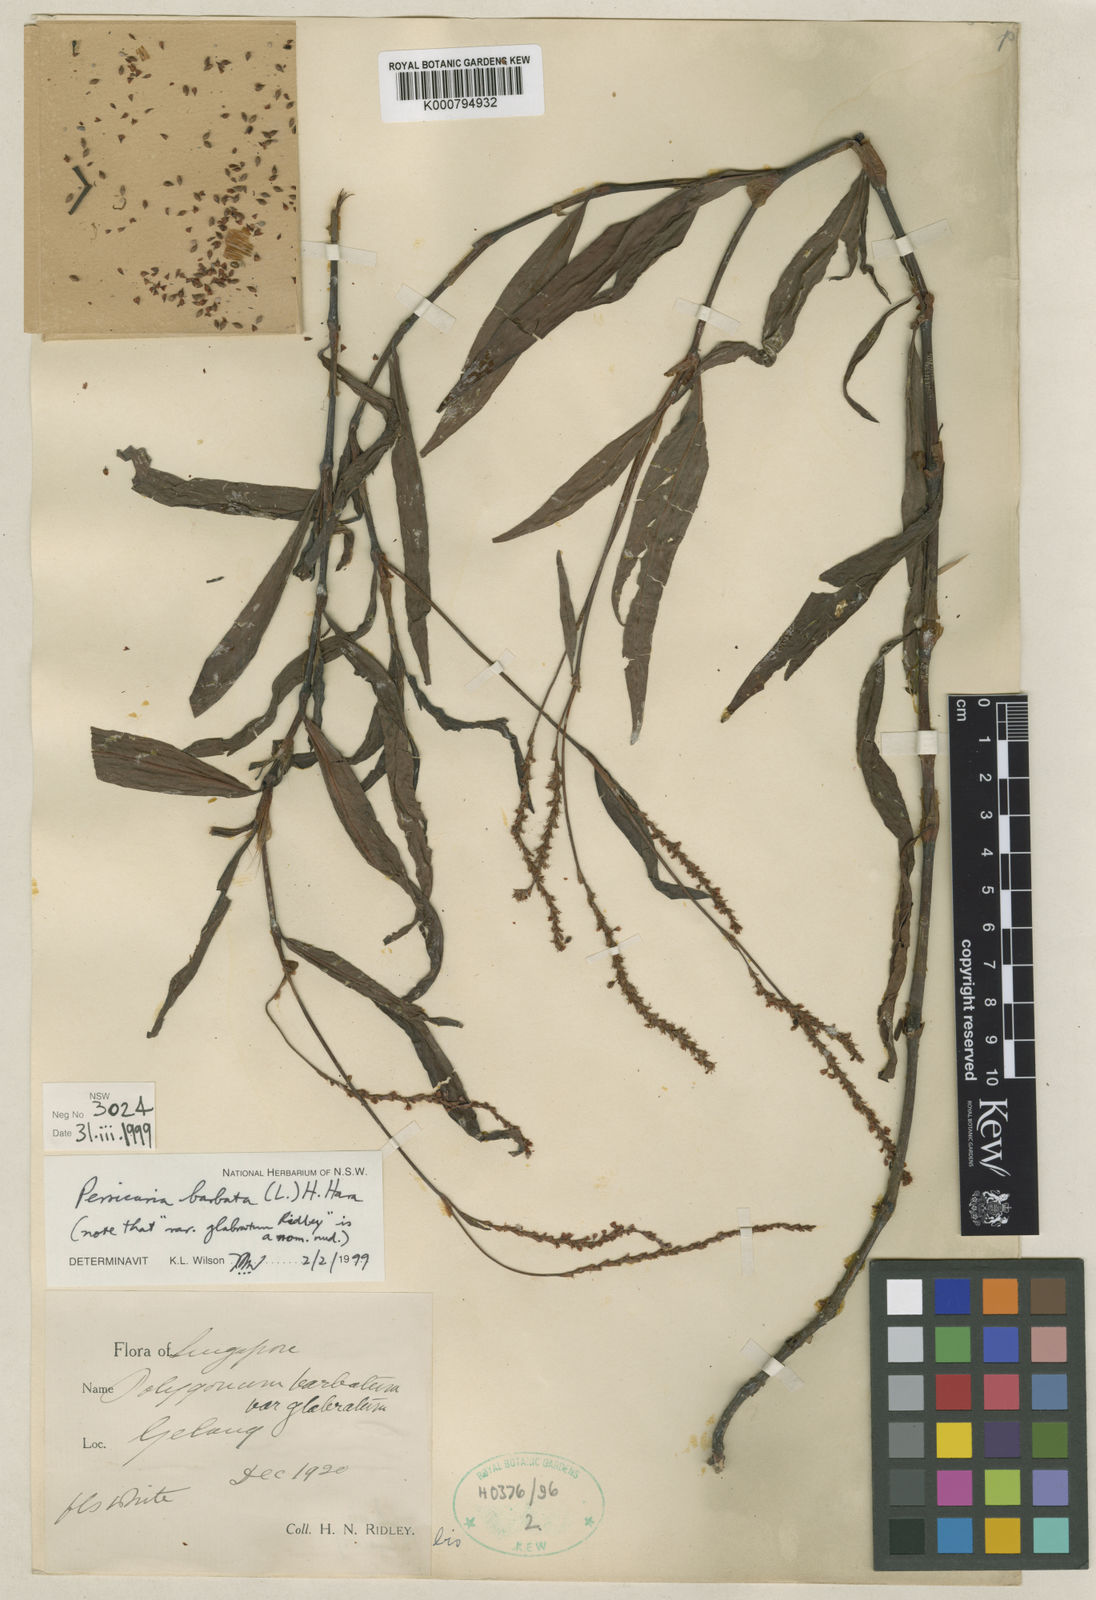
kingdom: Plantae
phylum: Tracheophyta
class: Magnoliopsida
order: Caryophyllales
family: Polygonaceae
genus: Persicaria
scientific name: Persicaria barbata
